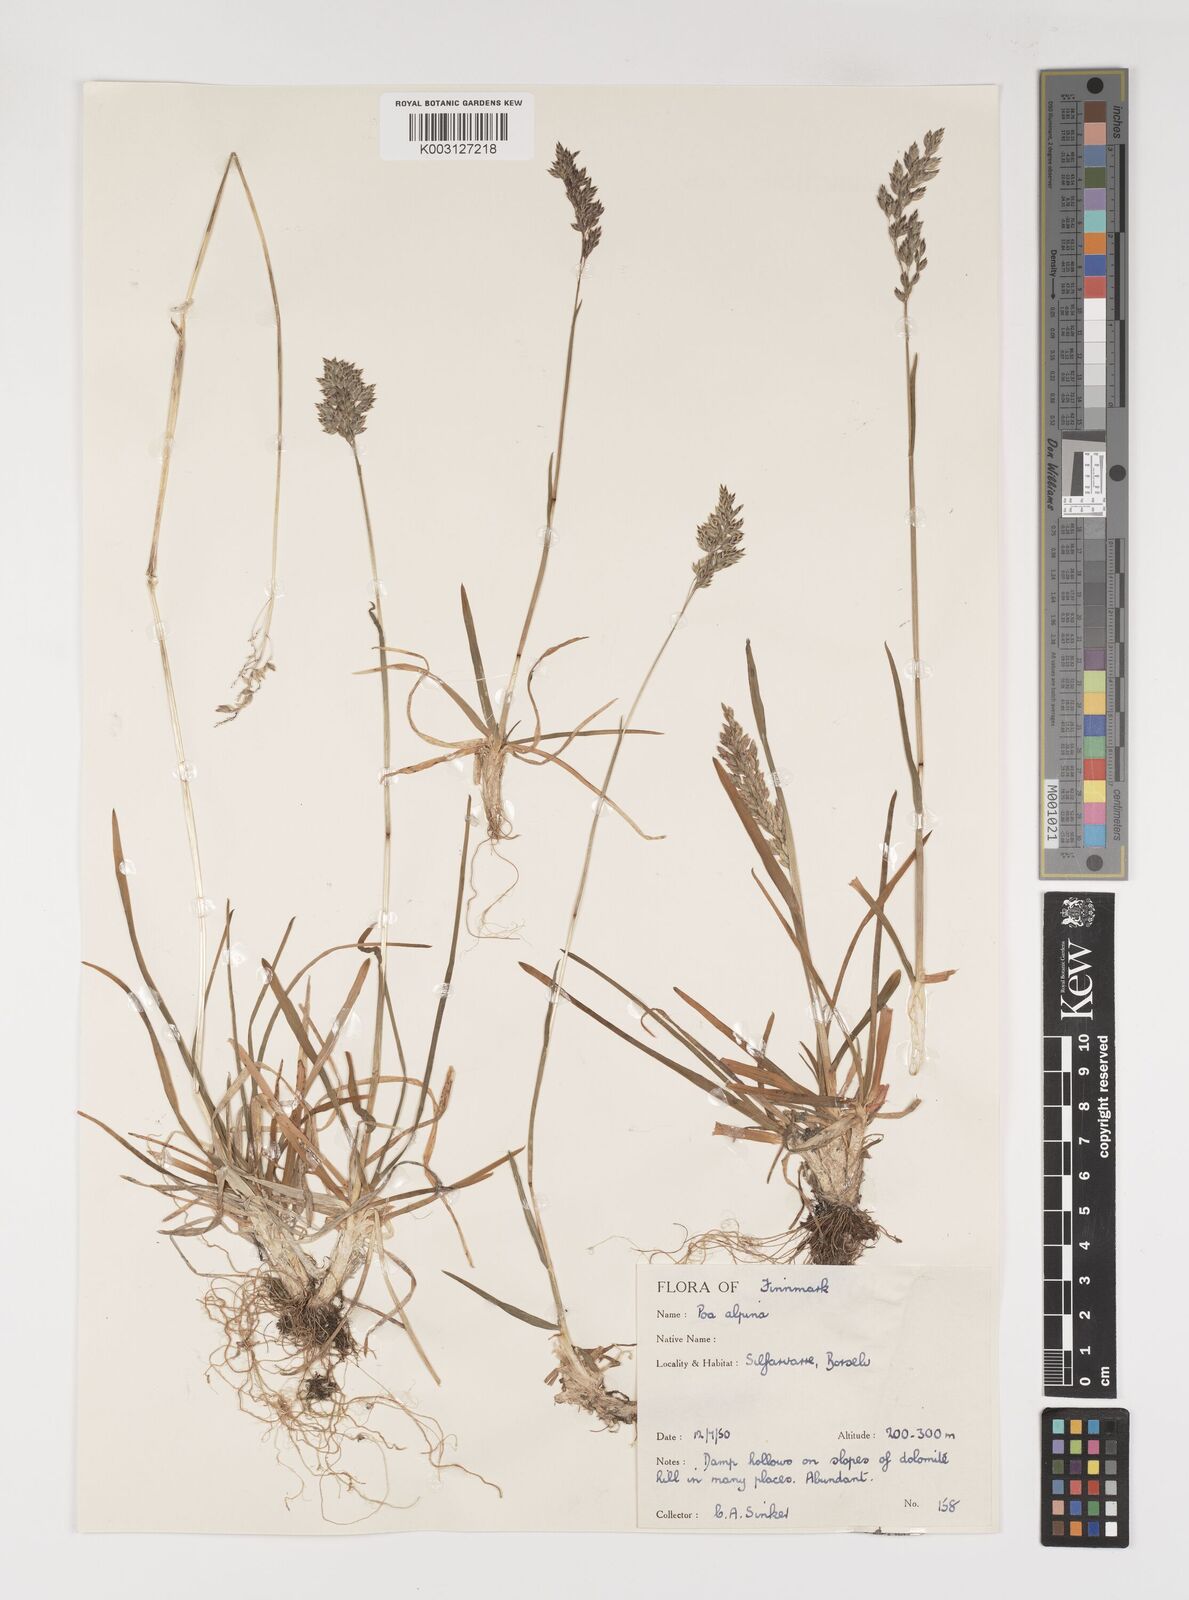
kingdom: Plantae
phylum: Tracheophyta
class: Liliopsida
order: Poales
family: Poaceae
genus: Poa
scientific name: Poa alpina
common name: Alpine bluegrass
